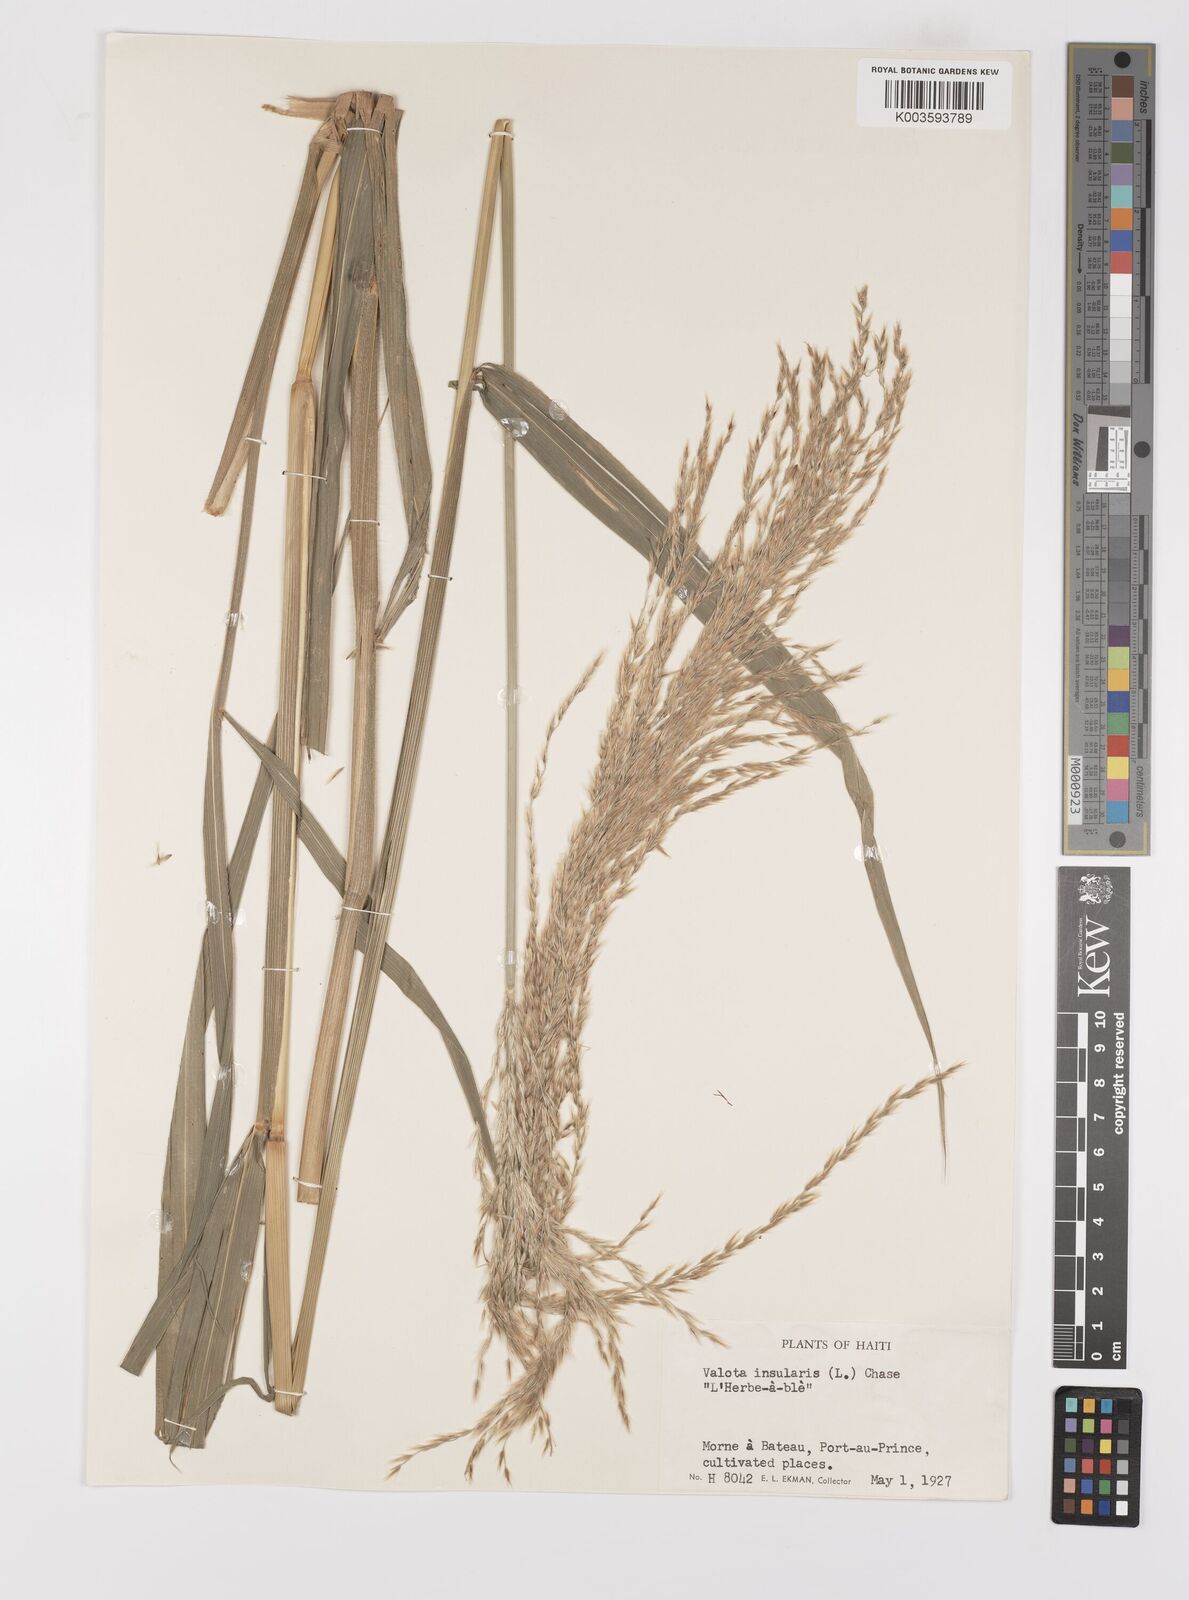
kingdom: Plantae
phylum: Tracheophyta
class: Liliopsida
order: Poales
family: Poaceae
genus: Digitaria
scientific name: Digitaria insularis
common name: Sourgrass
